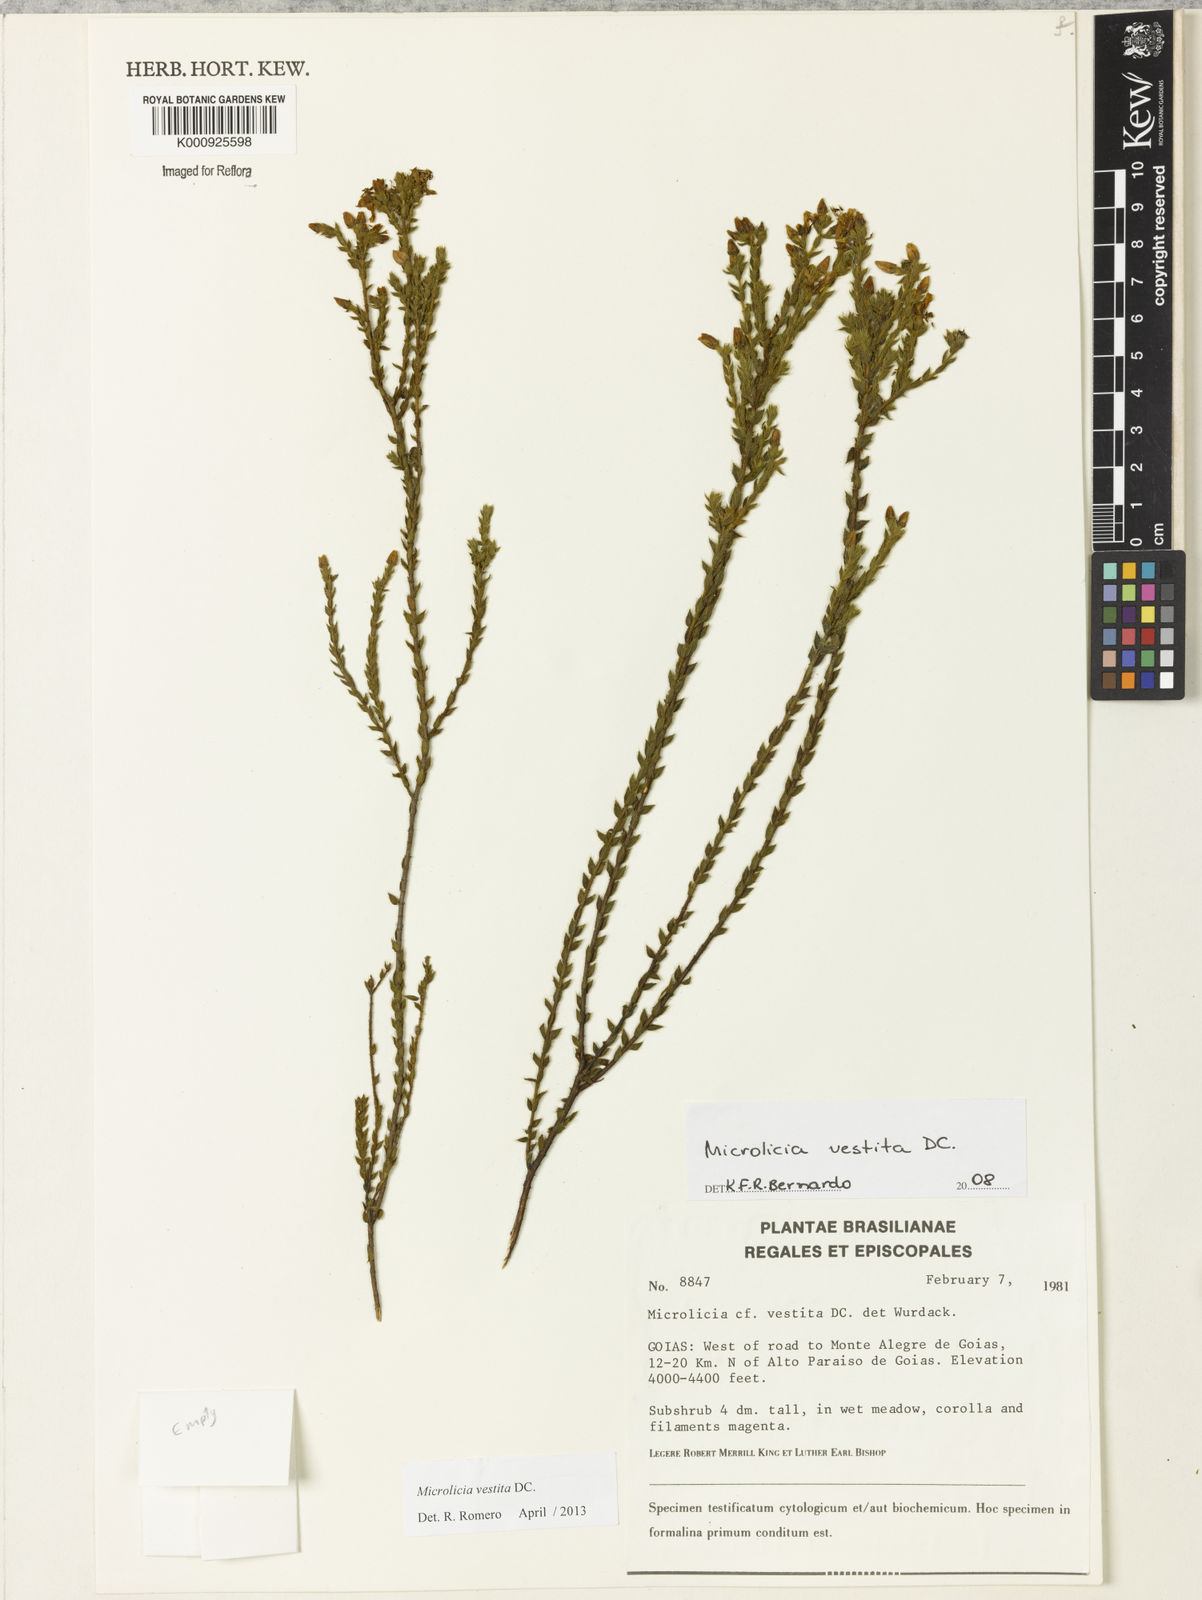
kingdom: Plantae
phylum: Tracheophyta
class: Magnoliopsida
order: Myrtales
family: Melastomataceae
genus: Microlicia
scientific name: Microlicia vestita
